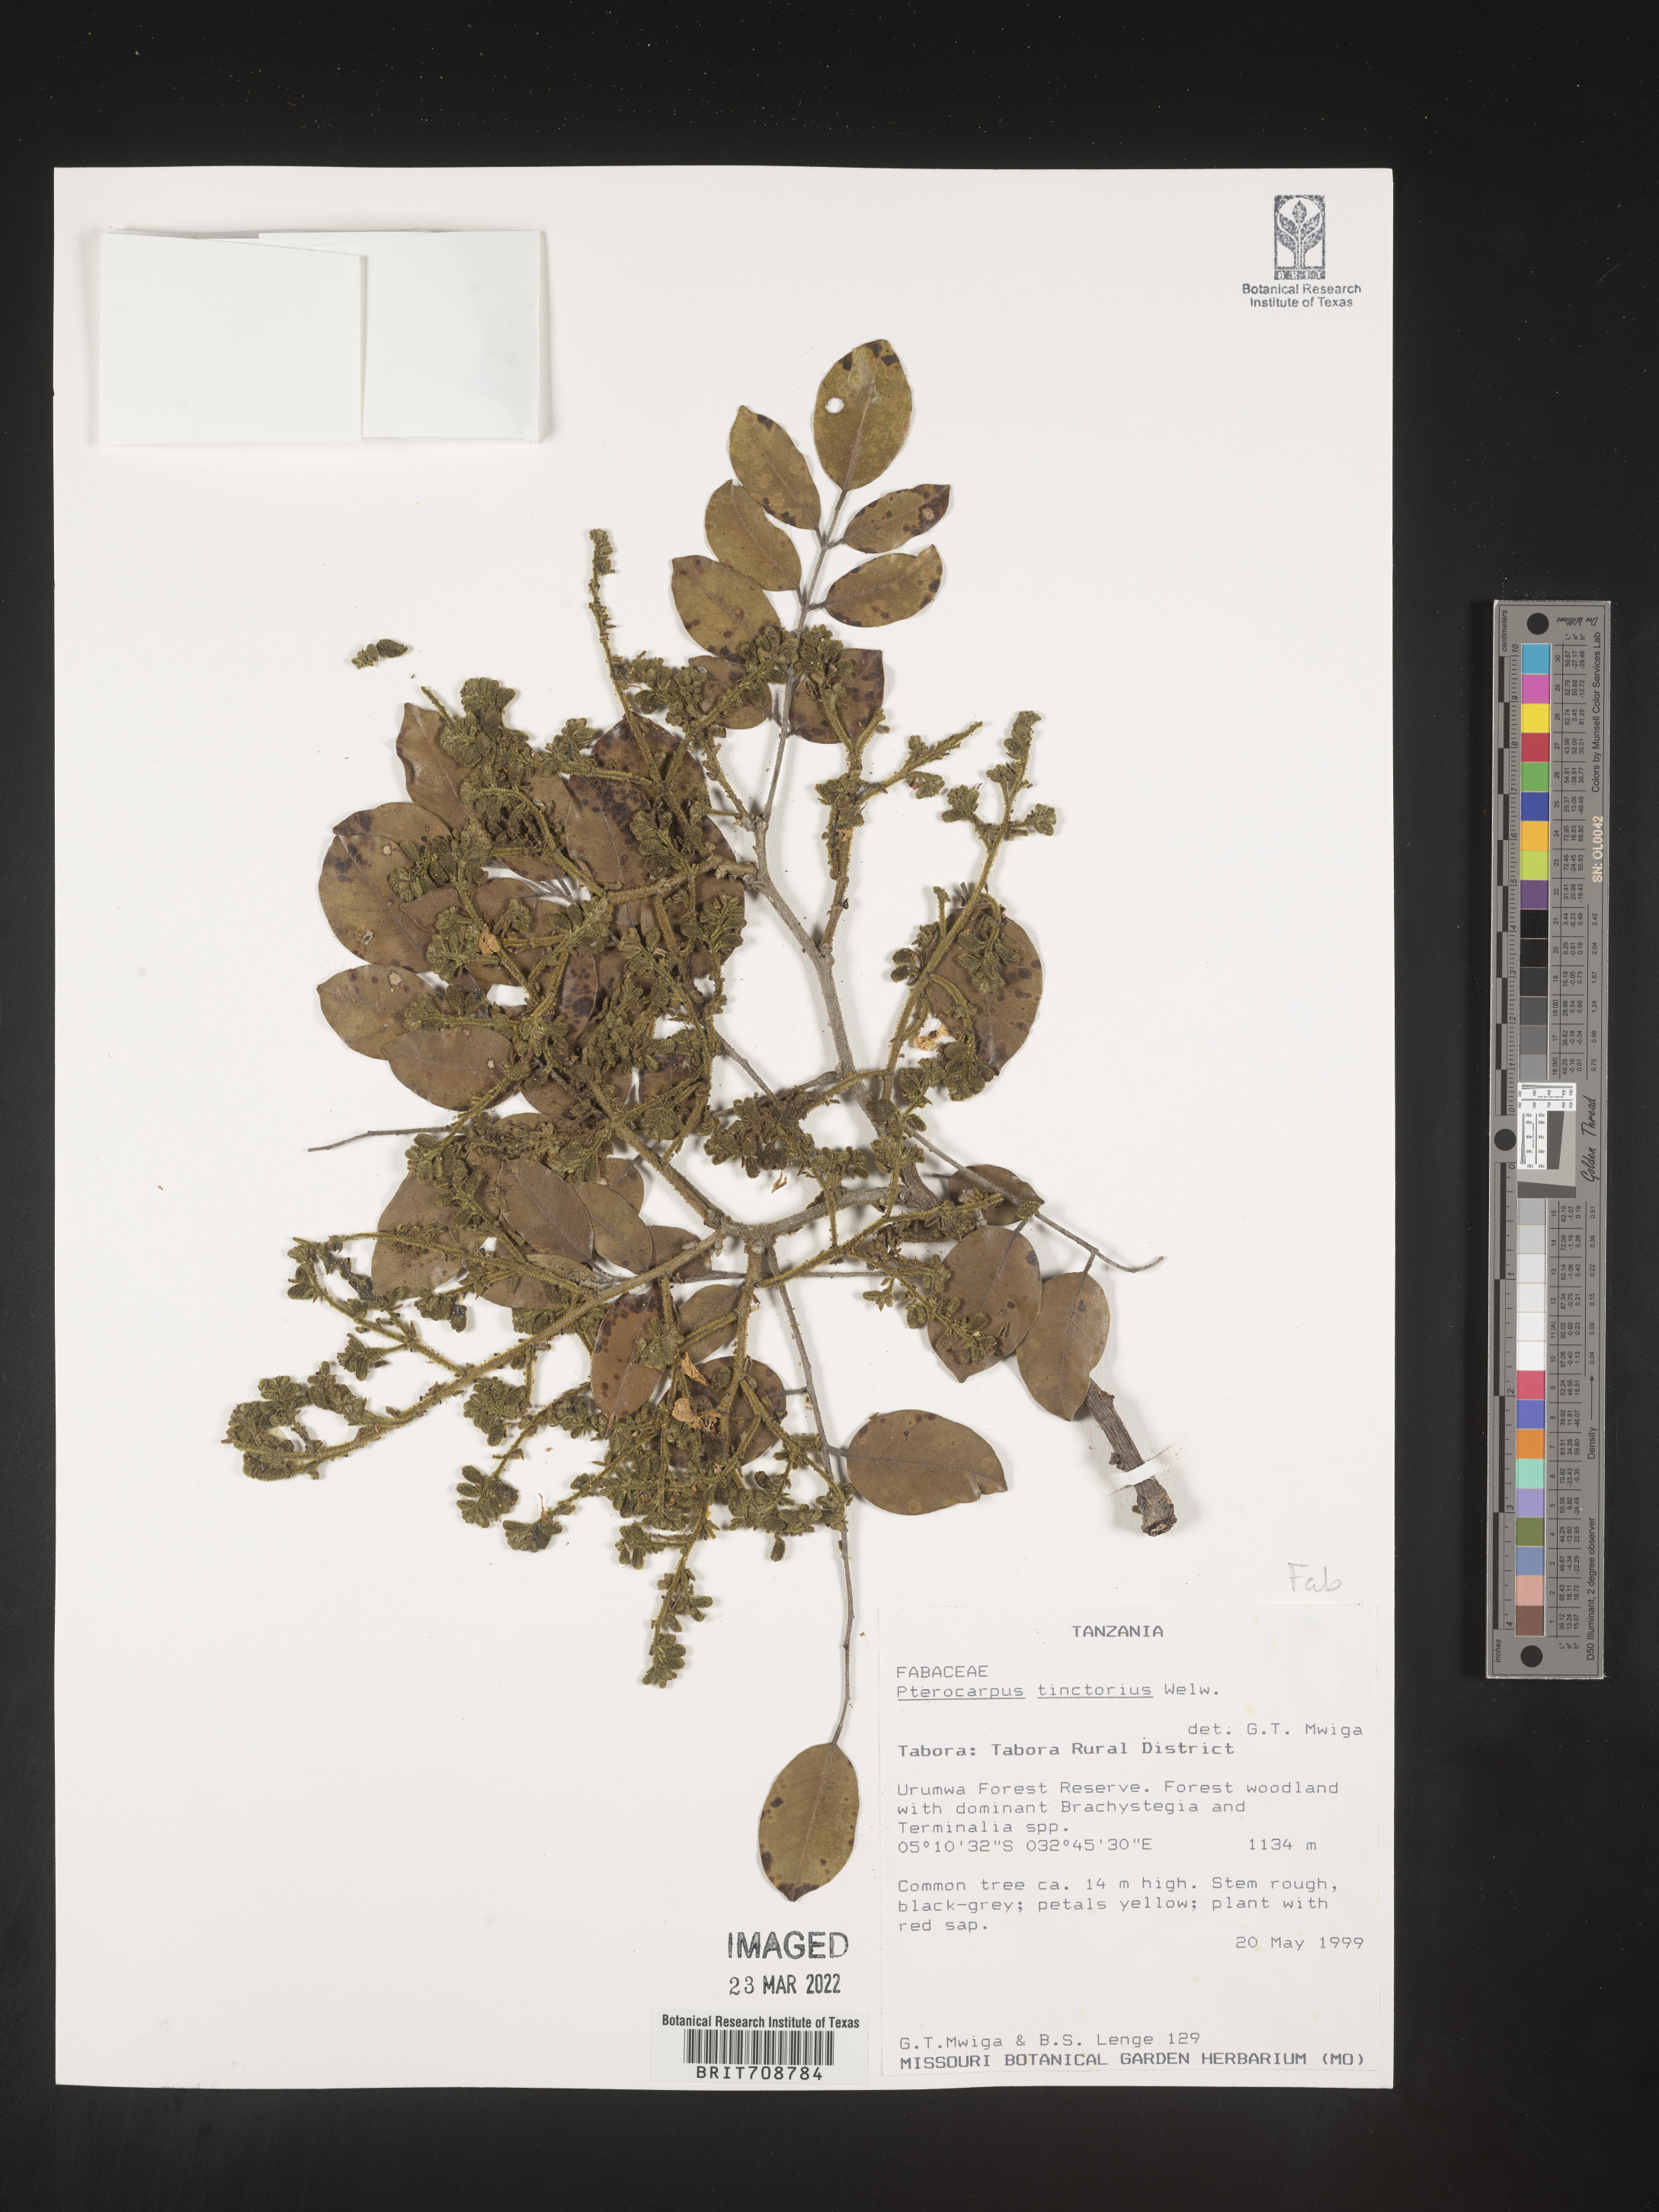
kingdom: Plantae
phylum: Tracheophyta
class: Magnoliopsida
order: Fabales
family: Fabaceae
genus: Pterocarpus
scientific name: Pterocarpus
